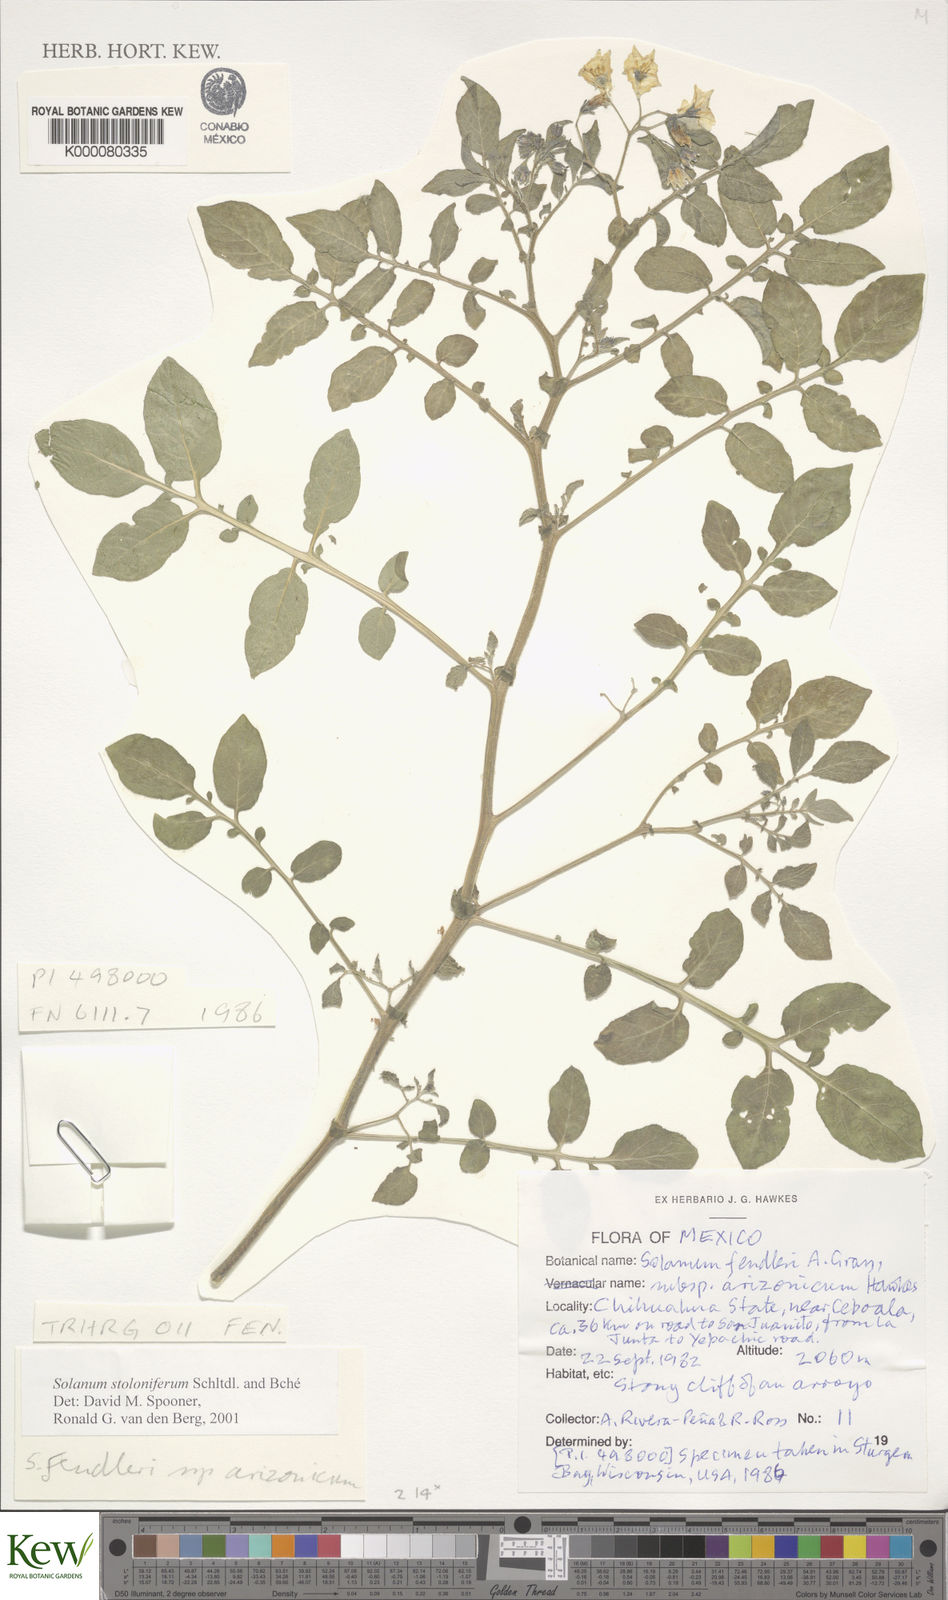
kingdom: Plantae
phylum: Tracheophyta
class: Magnoliopsida
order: Solanales
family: Solanaceae
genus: Solanum
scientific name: Solanum stoloniferum
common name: Fendler's nighshade
